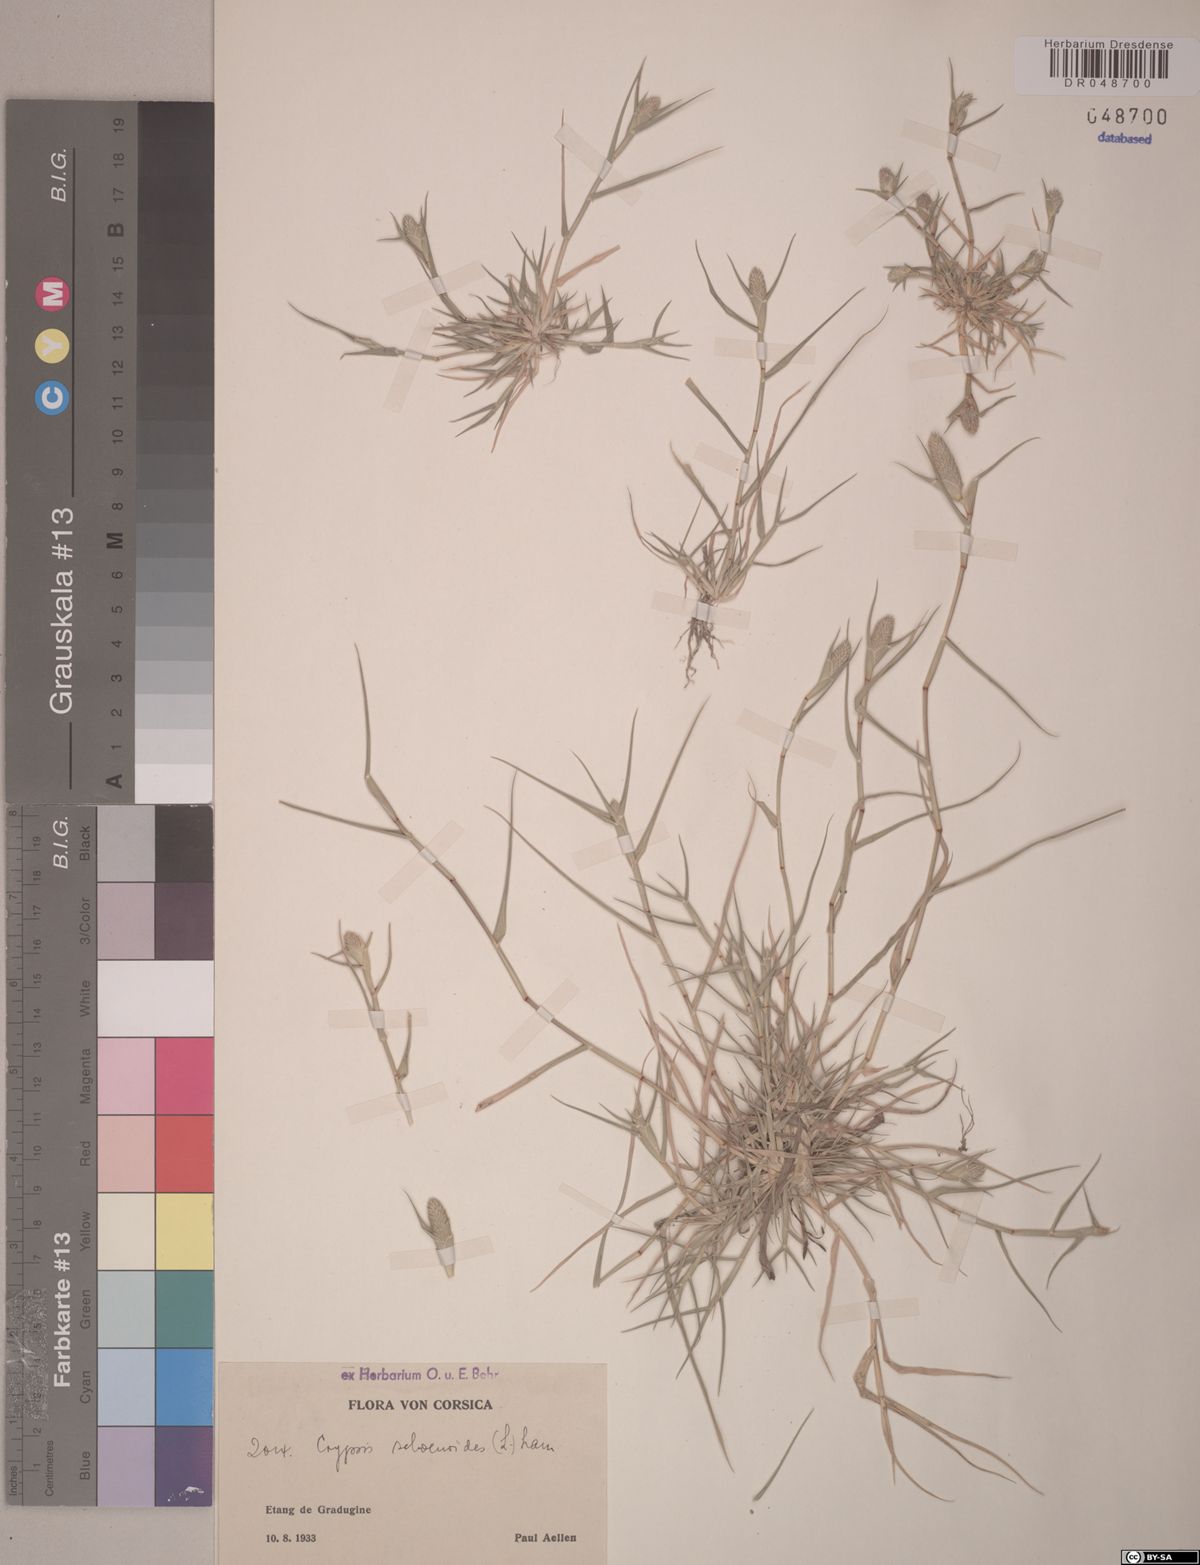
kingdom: Plantae
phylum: Tracheophyta
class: Liliopsida
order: Poales
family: Poaceae
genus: Sporobolus
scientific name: Sporobolus schoenoides
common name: Rush-like timothy
